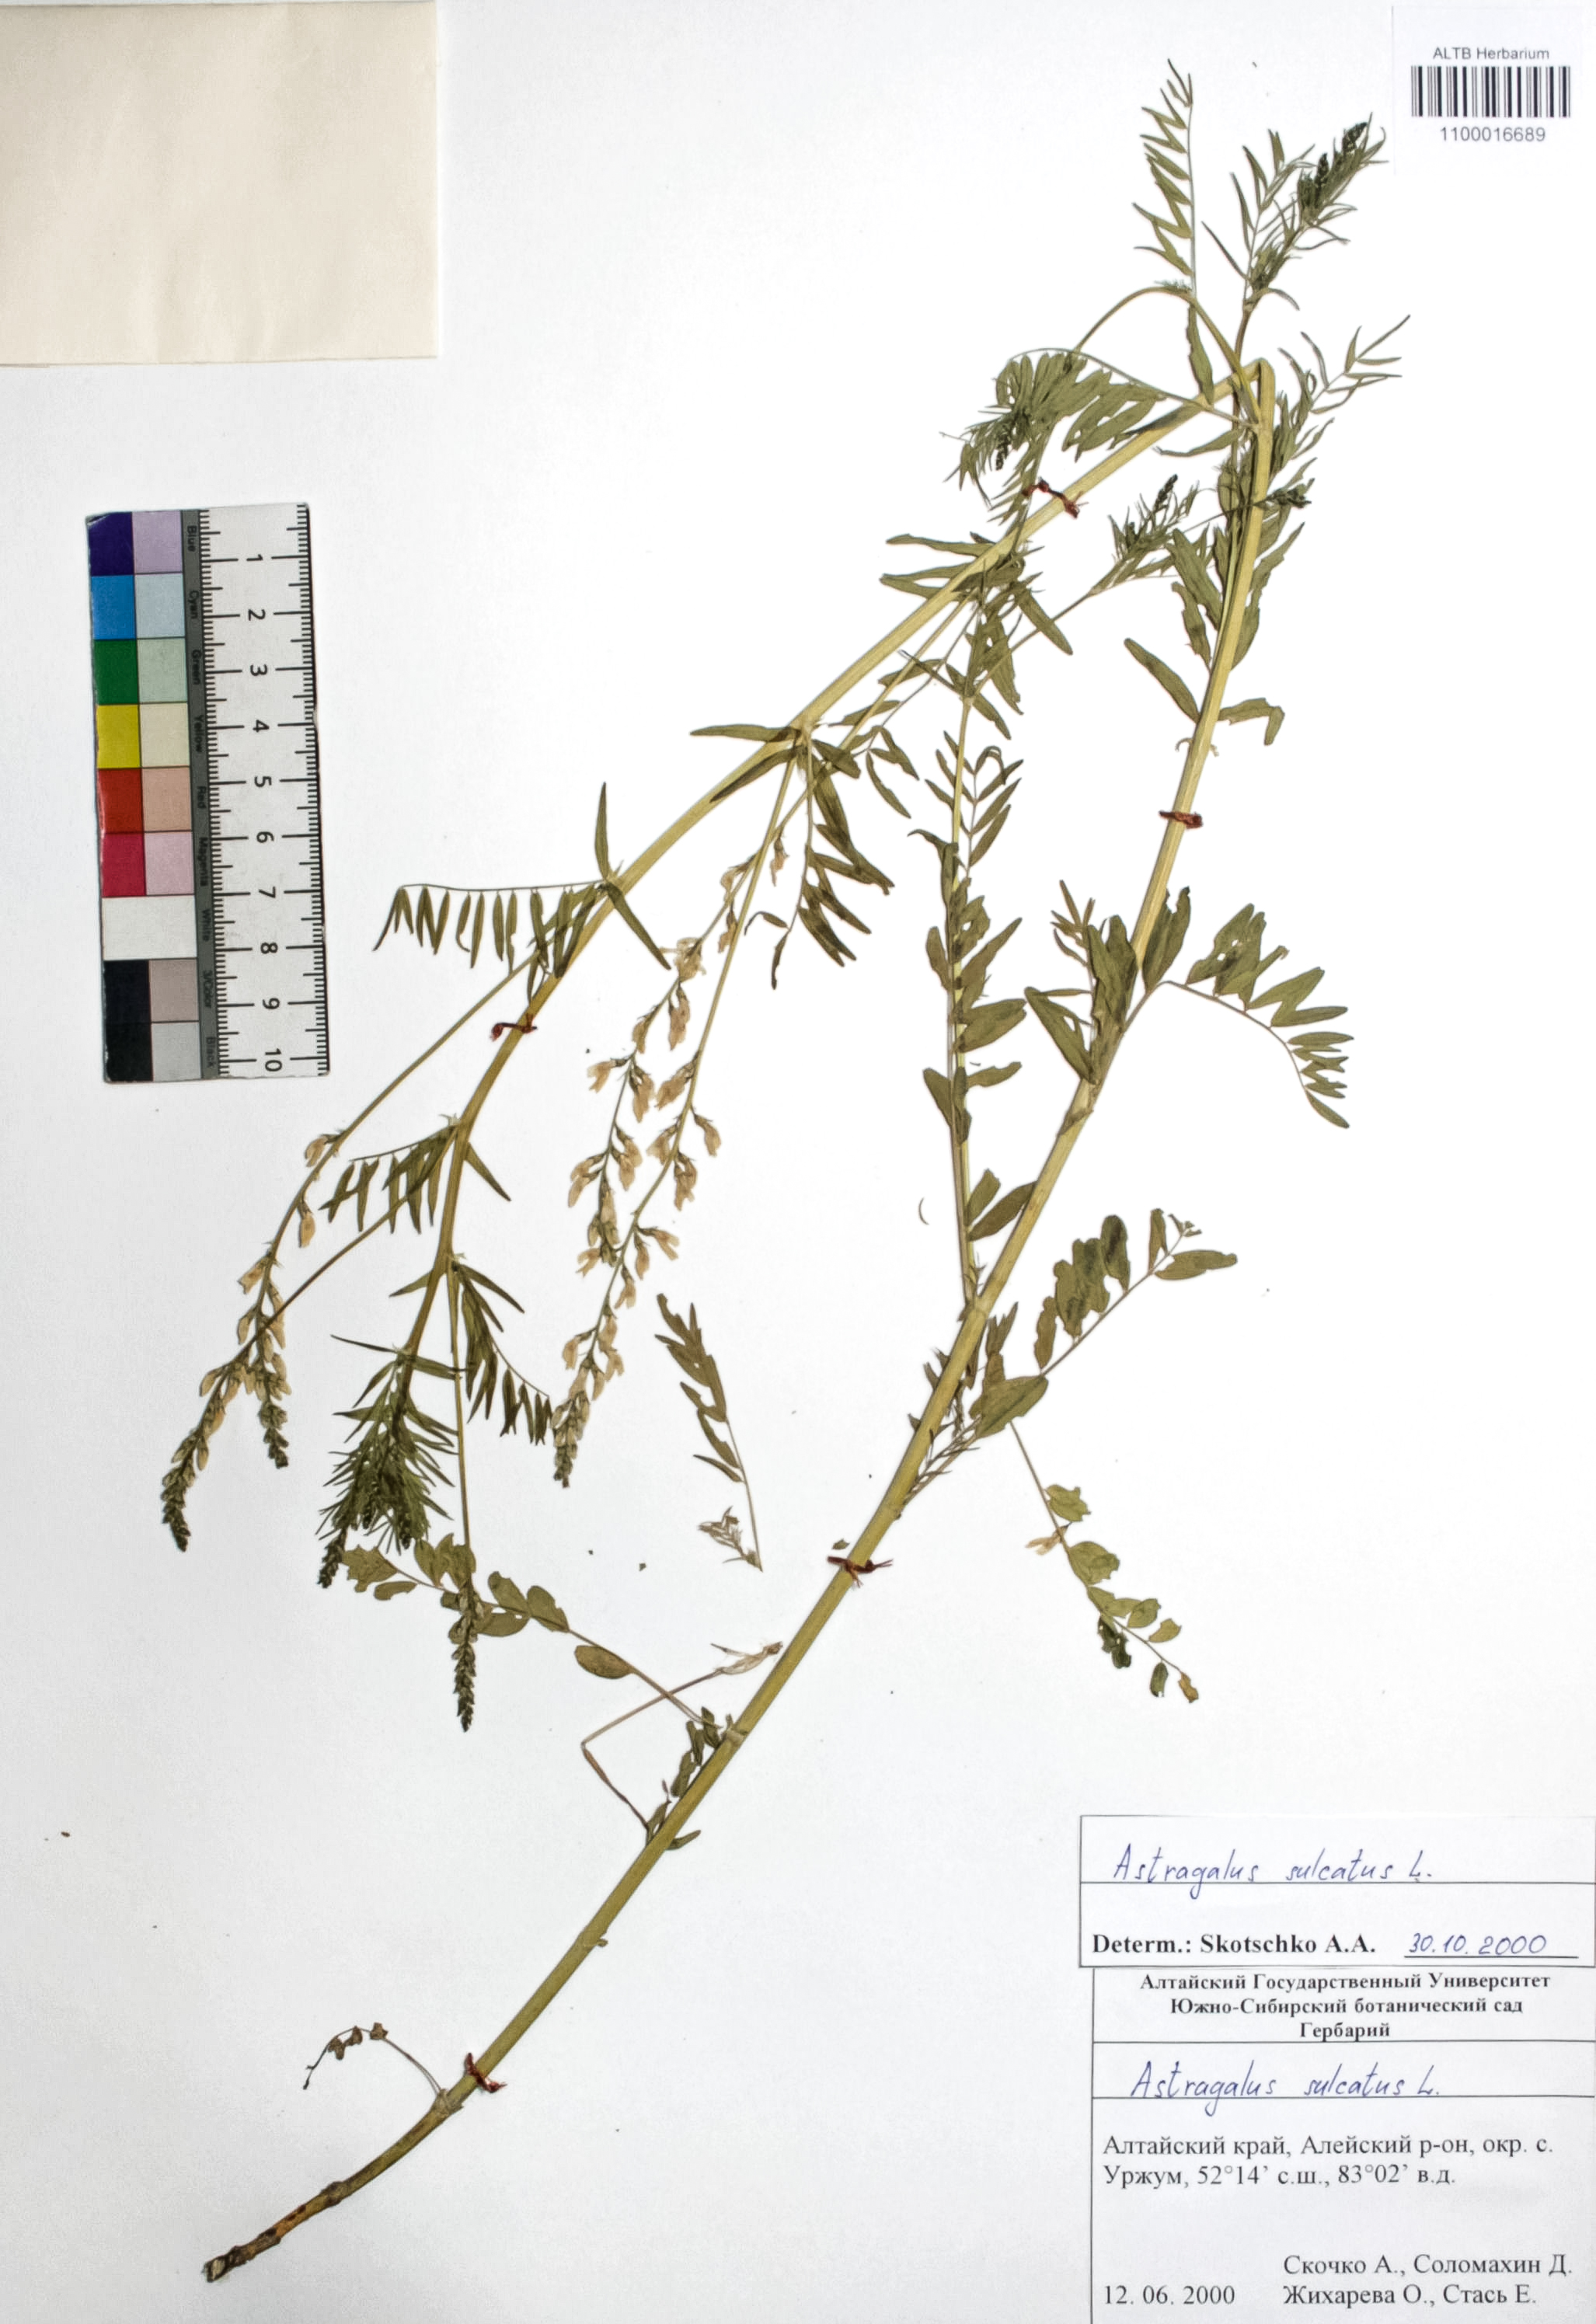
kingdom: Plantae
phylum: Tracheophyta
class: Magnoliopsida
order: Fabales
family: Fabaceae
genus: Astragalus
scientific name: Astragalus sulcatus
